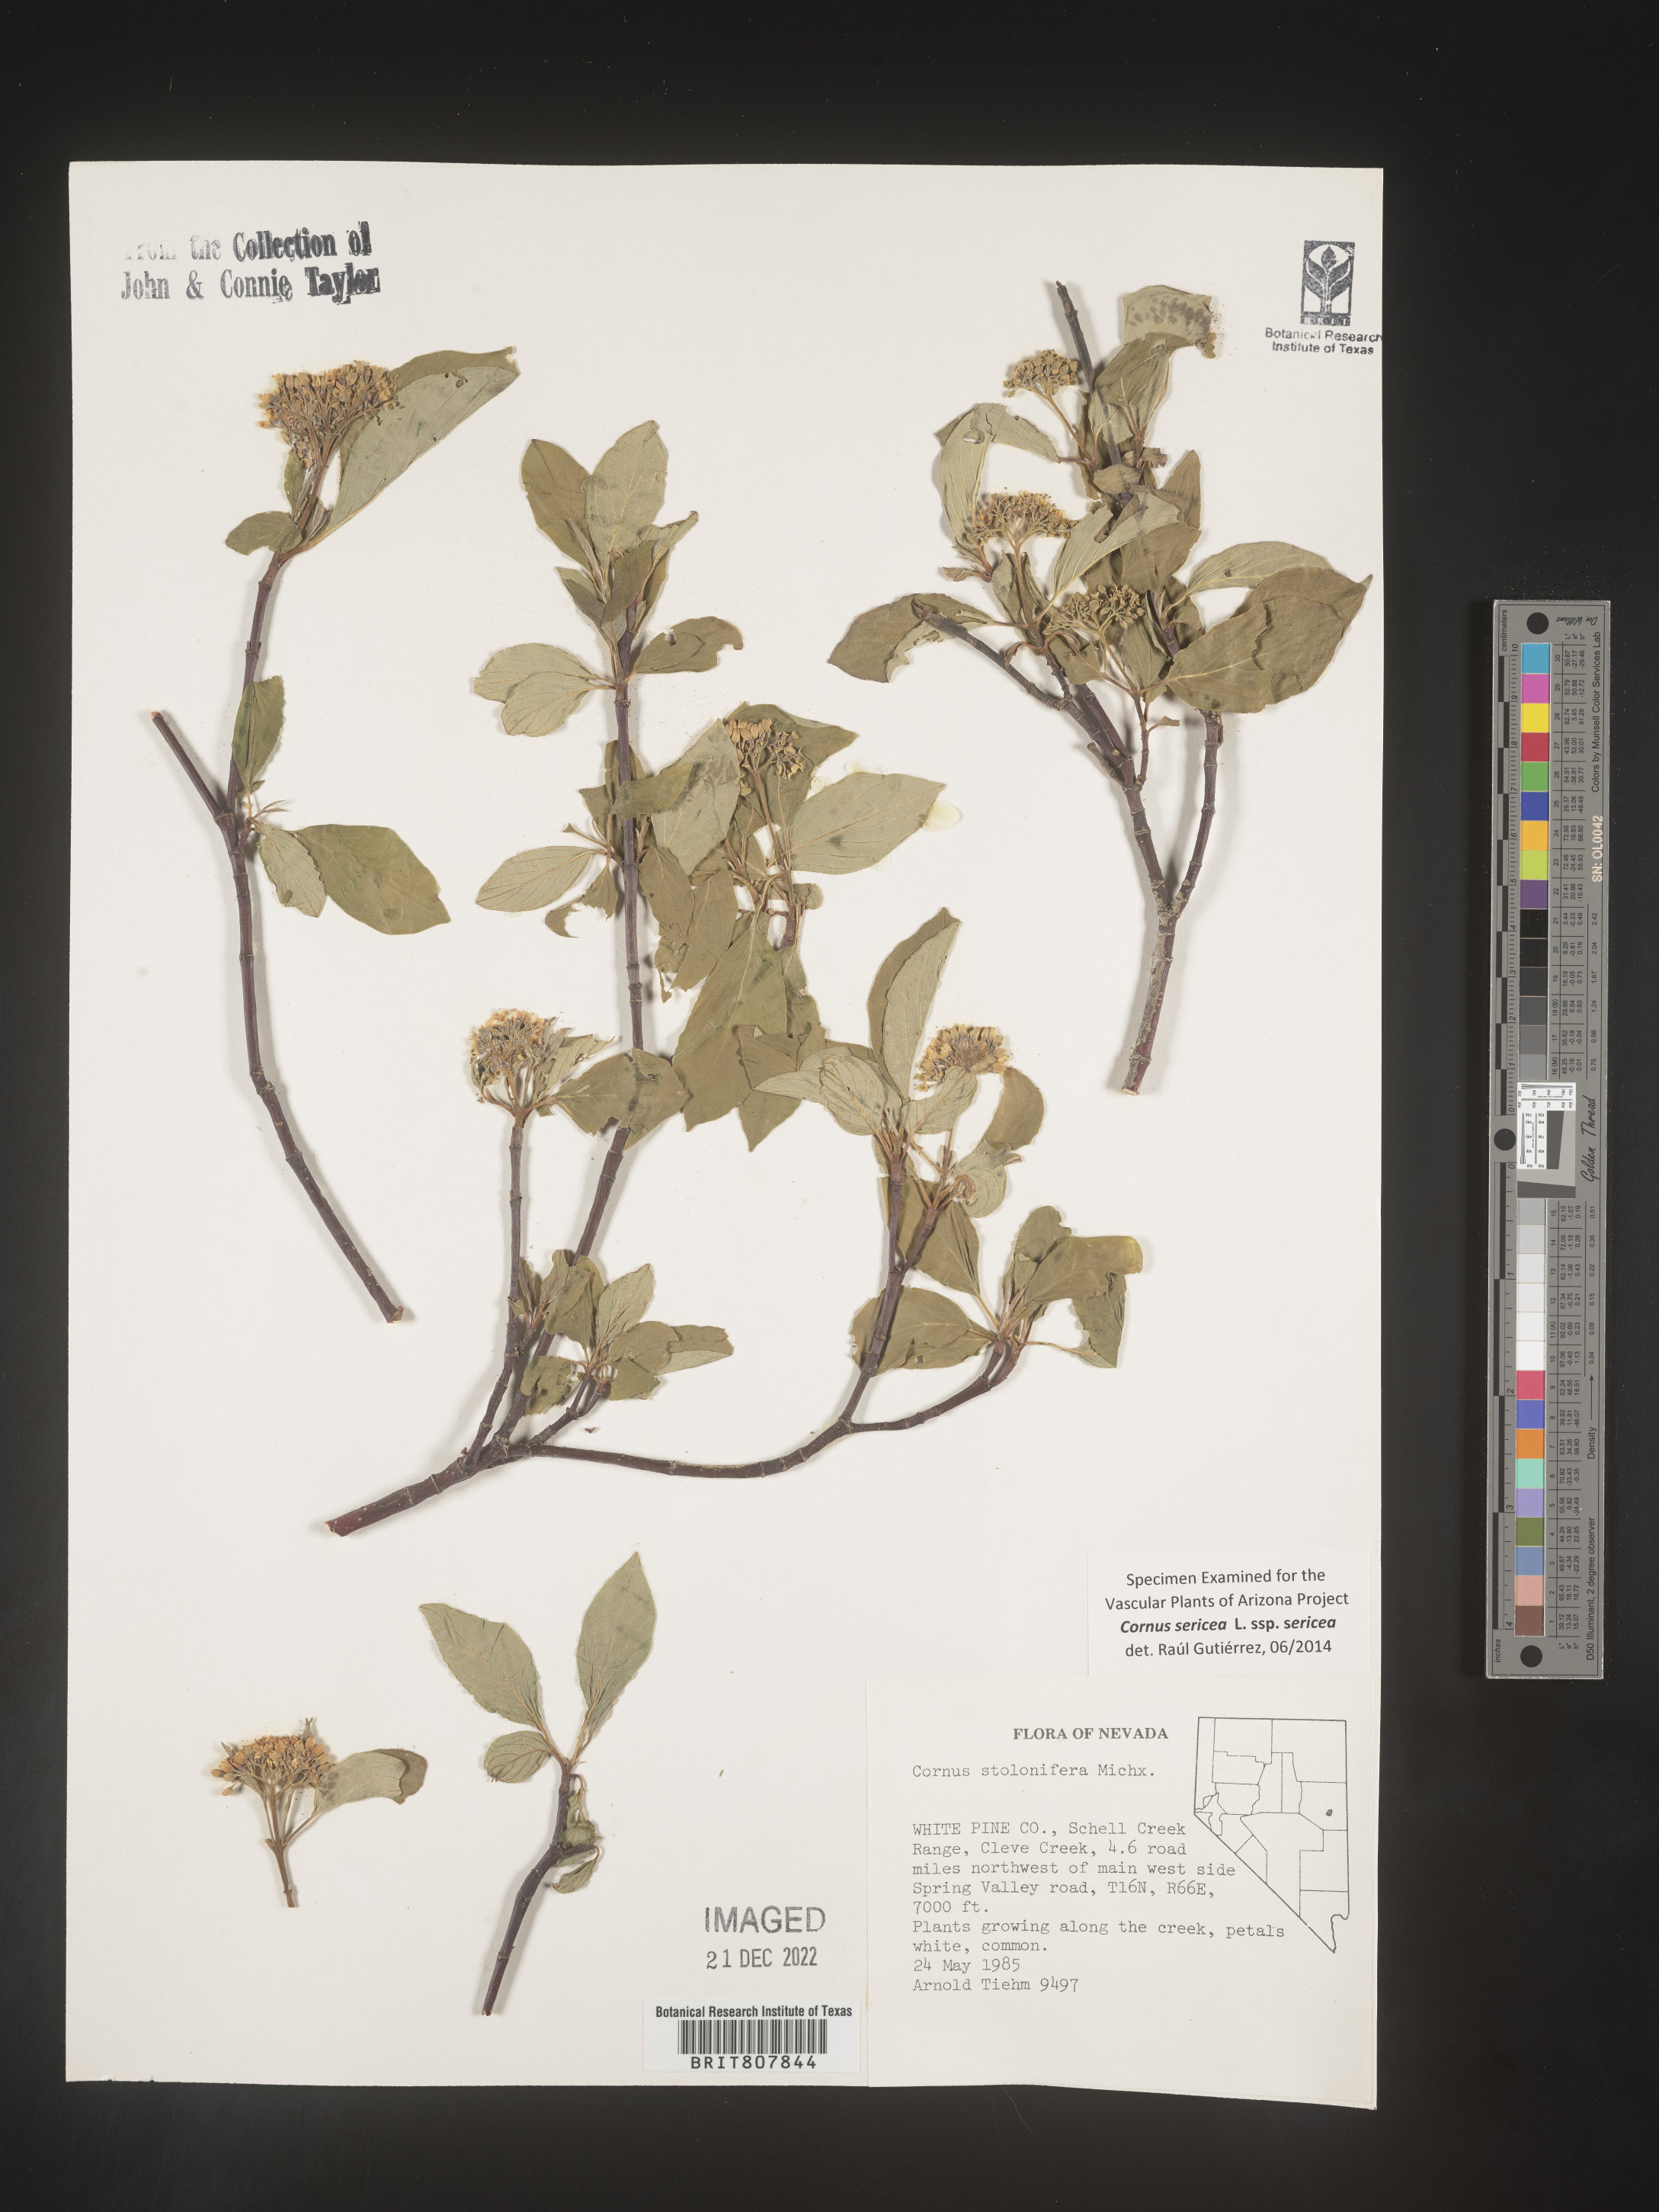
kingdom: Plantae
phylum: Tracheophyta
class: Magnoliopsida
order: Cornales
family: Cornaceae
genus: Cornus
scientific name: Cornus
